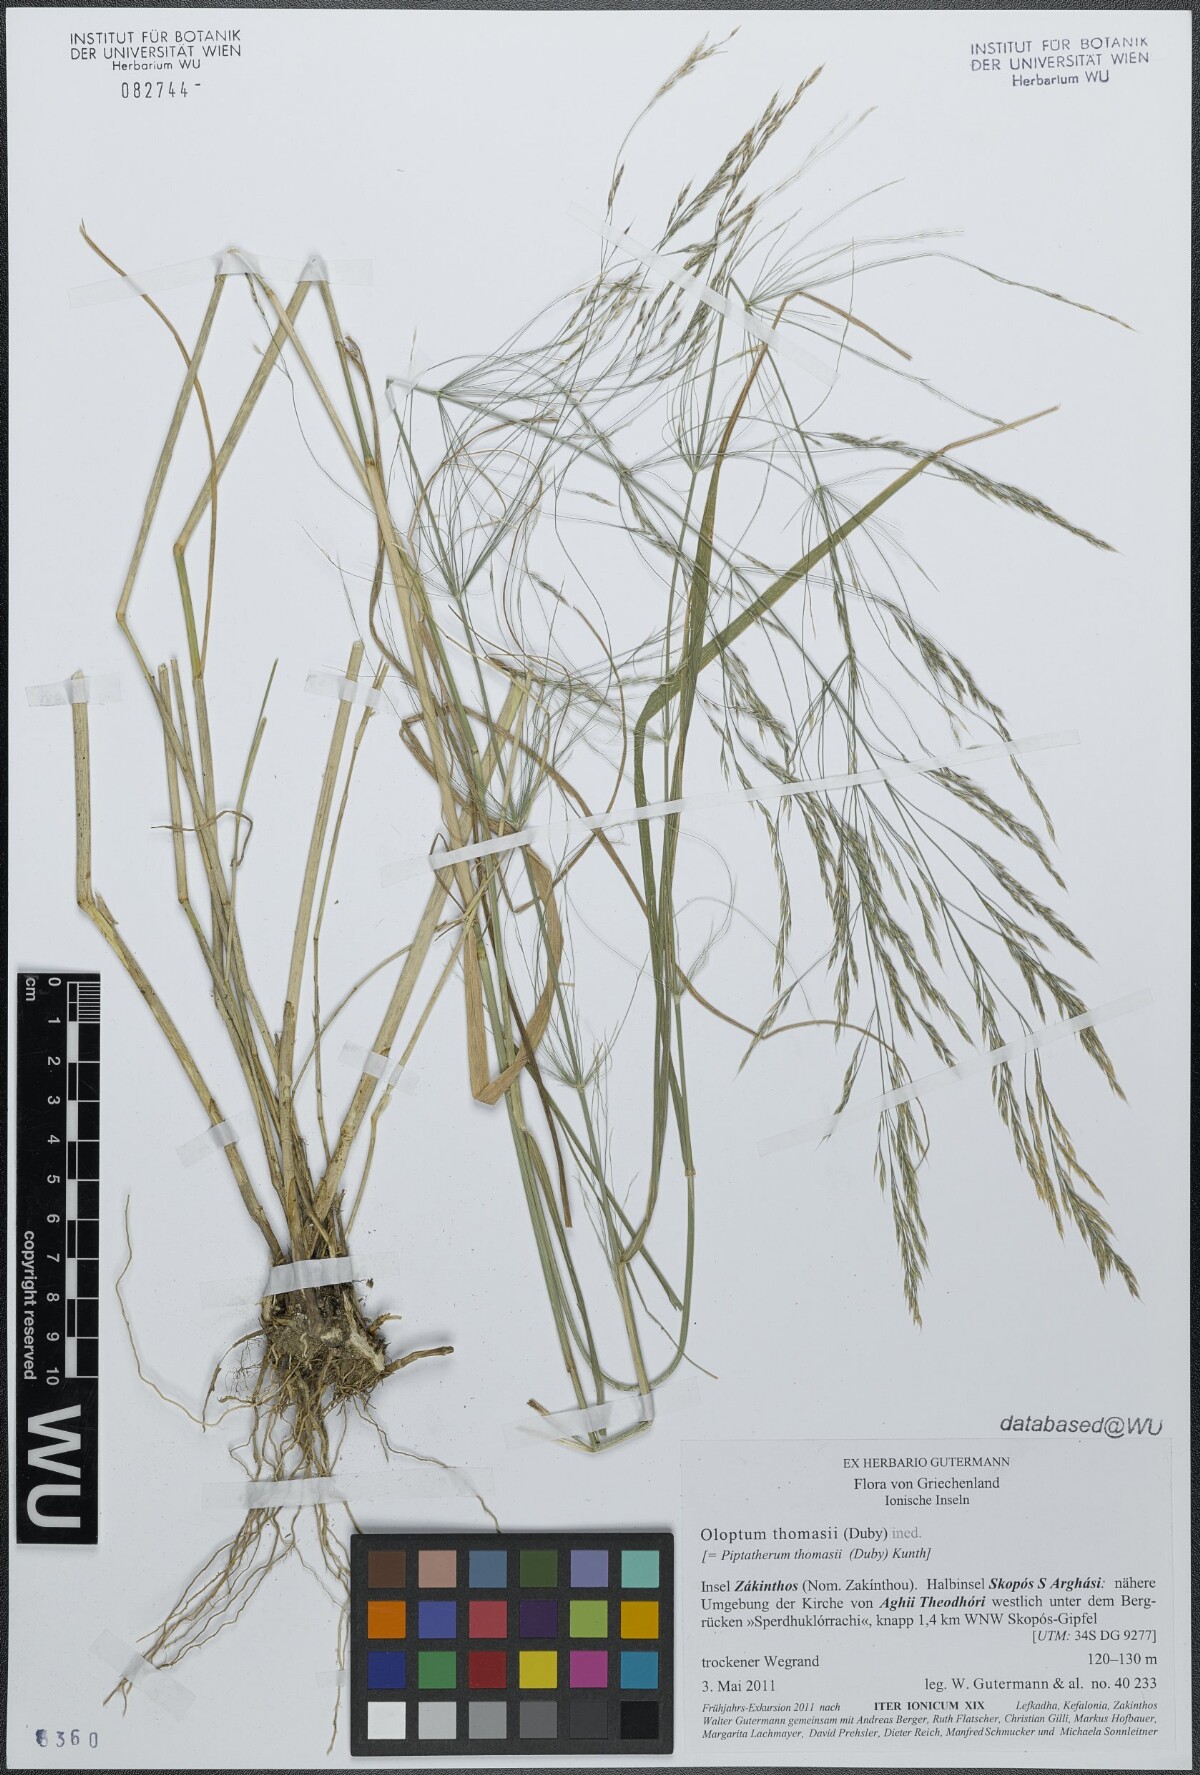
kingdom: Plantae
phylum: Tracheophyta
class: Liliopsida
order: Poales
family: Poaceae
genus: Oloptum
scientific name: Oloptum thomasii
